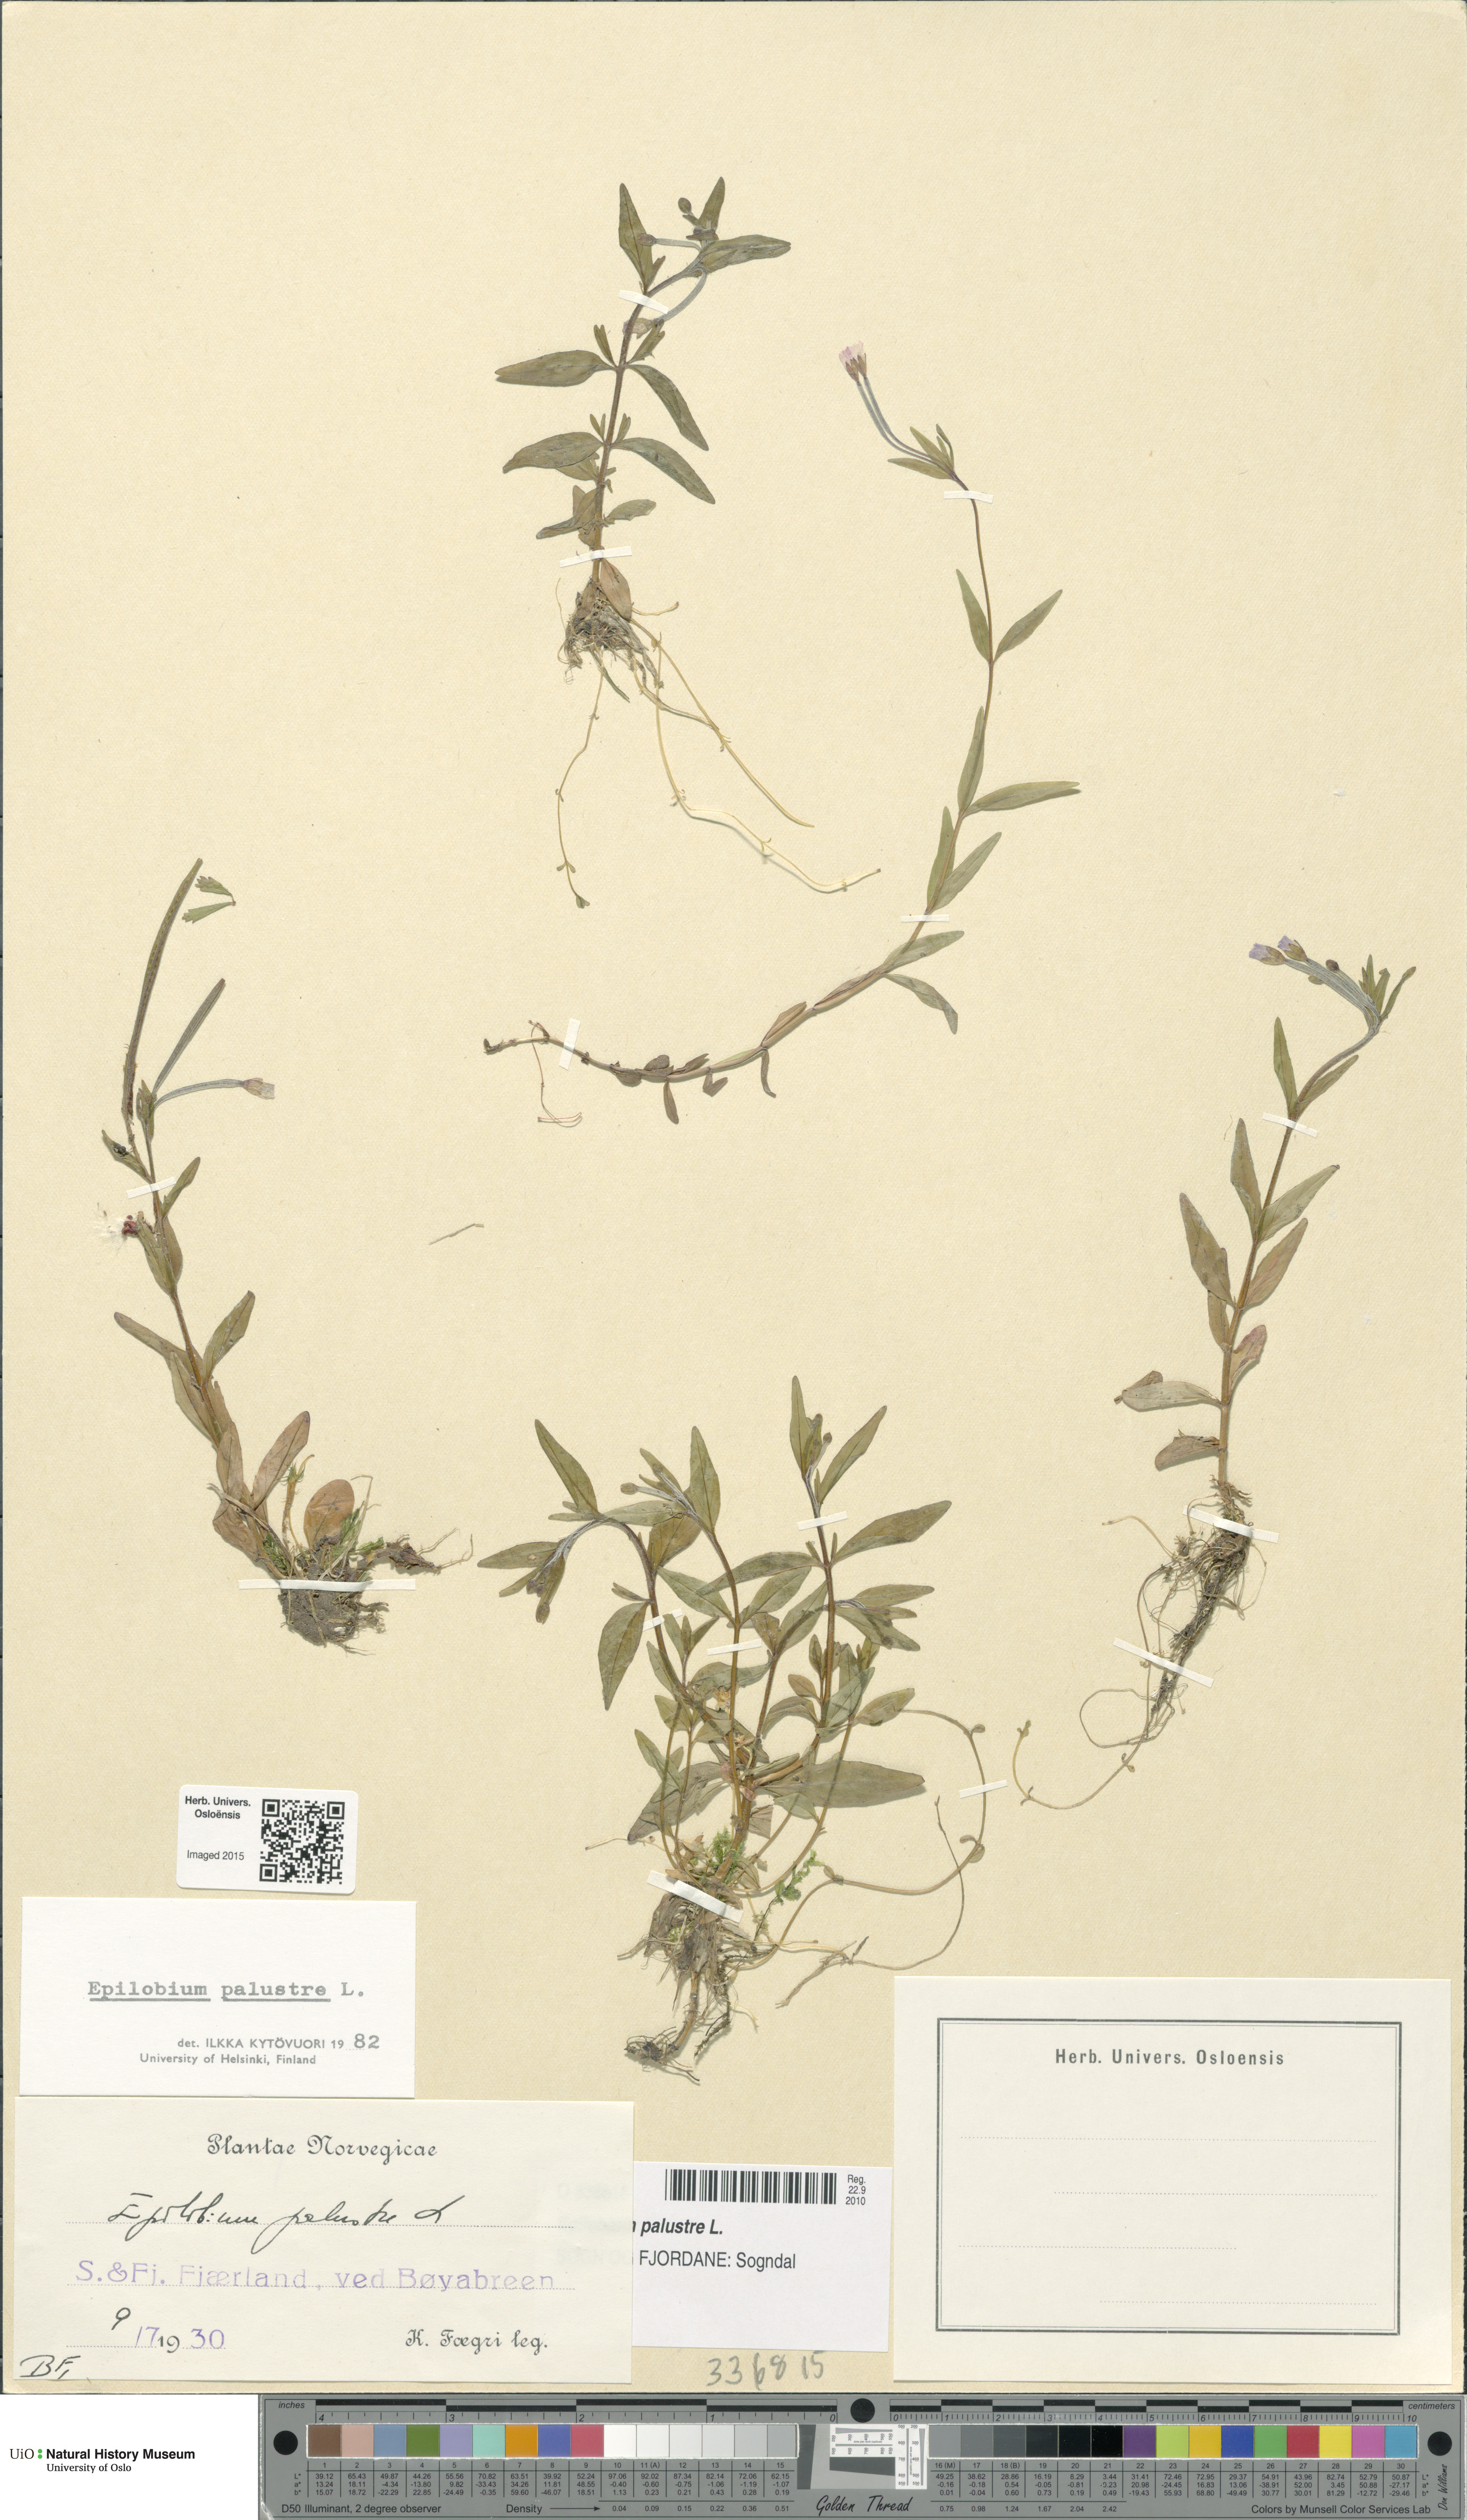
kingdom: Plantae
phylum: Tracheophyta
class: Magnoliopsida
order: Myrtales
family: Onagraceae
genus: Epilobium
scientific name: Epilobium palustre
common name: Marsh willowherb
